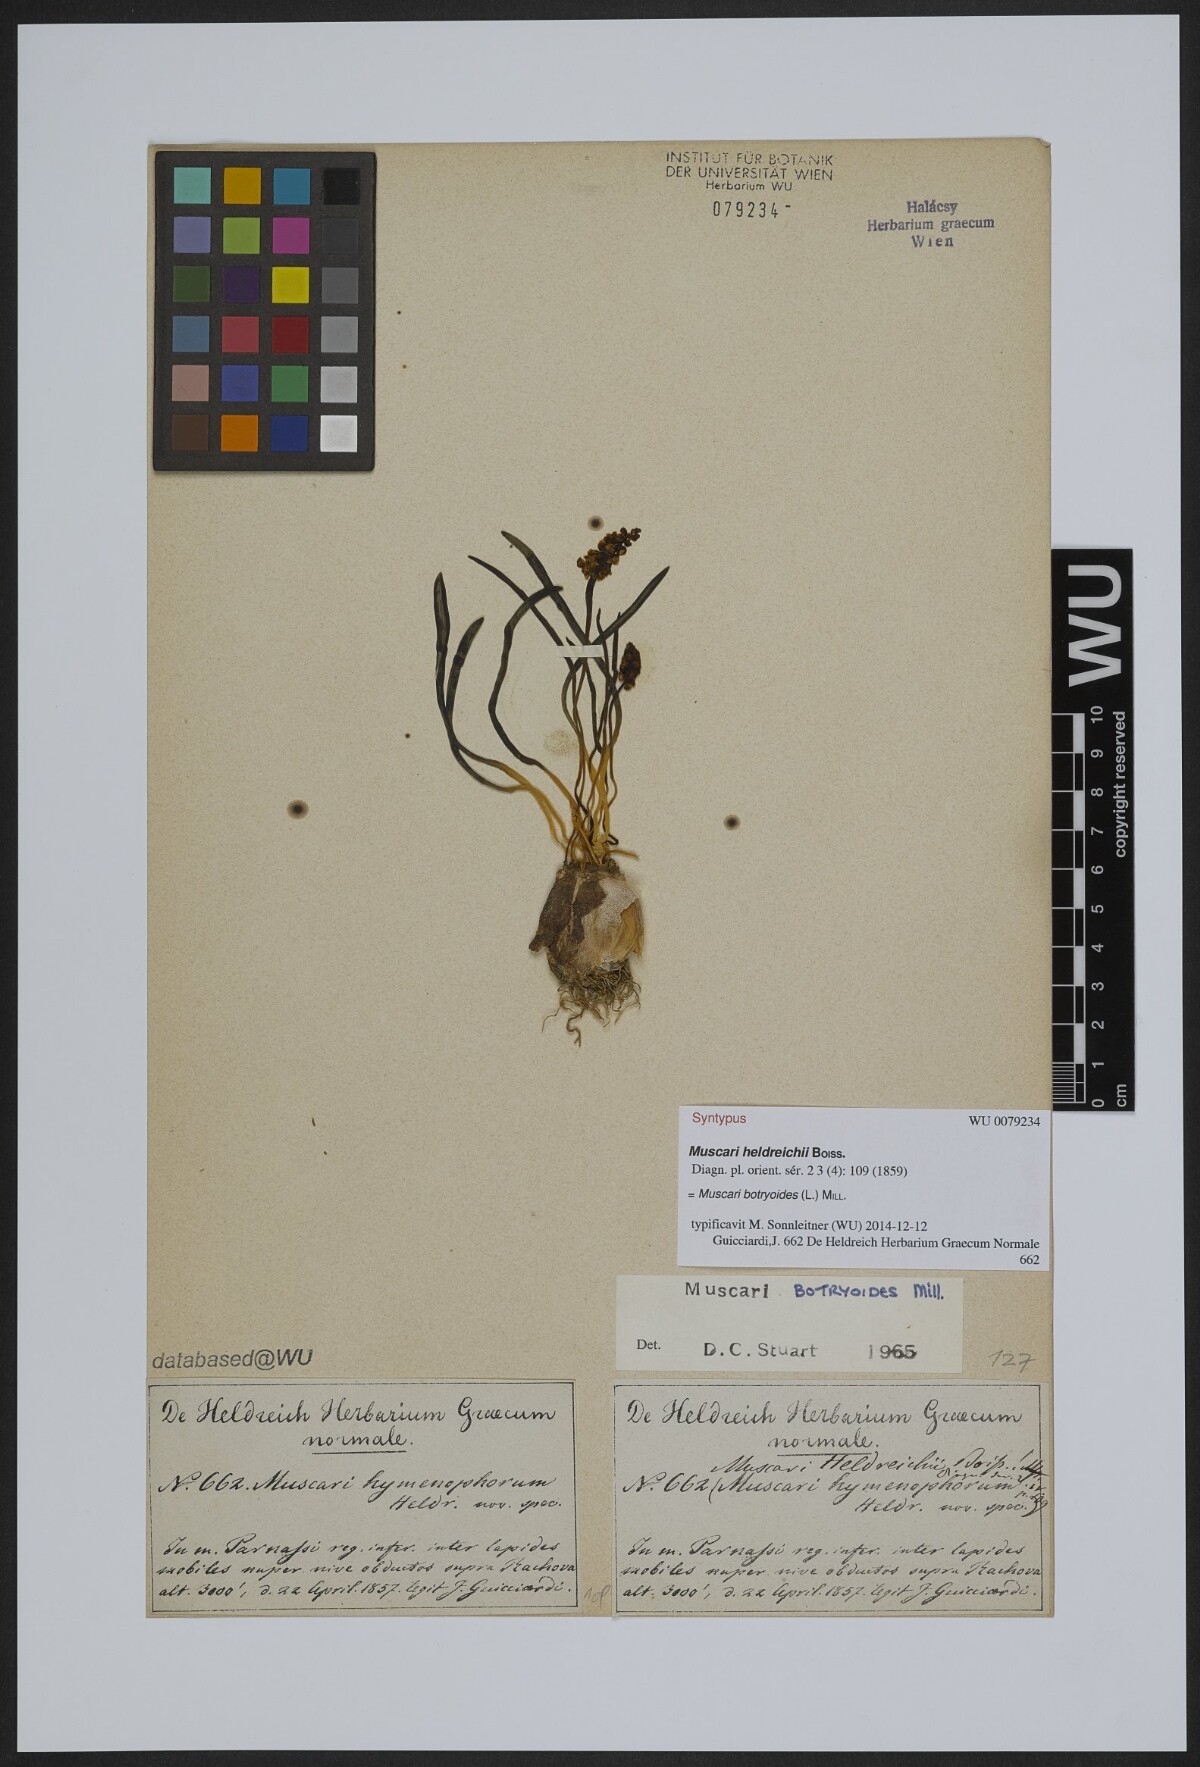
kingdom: Plantae
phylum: Tracheophyta
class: Liliopsida
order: Asparagales
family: Asparagaceae
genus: Muscari
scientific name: Muscari heldreichii
